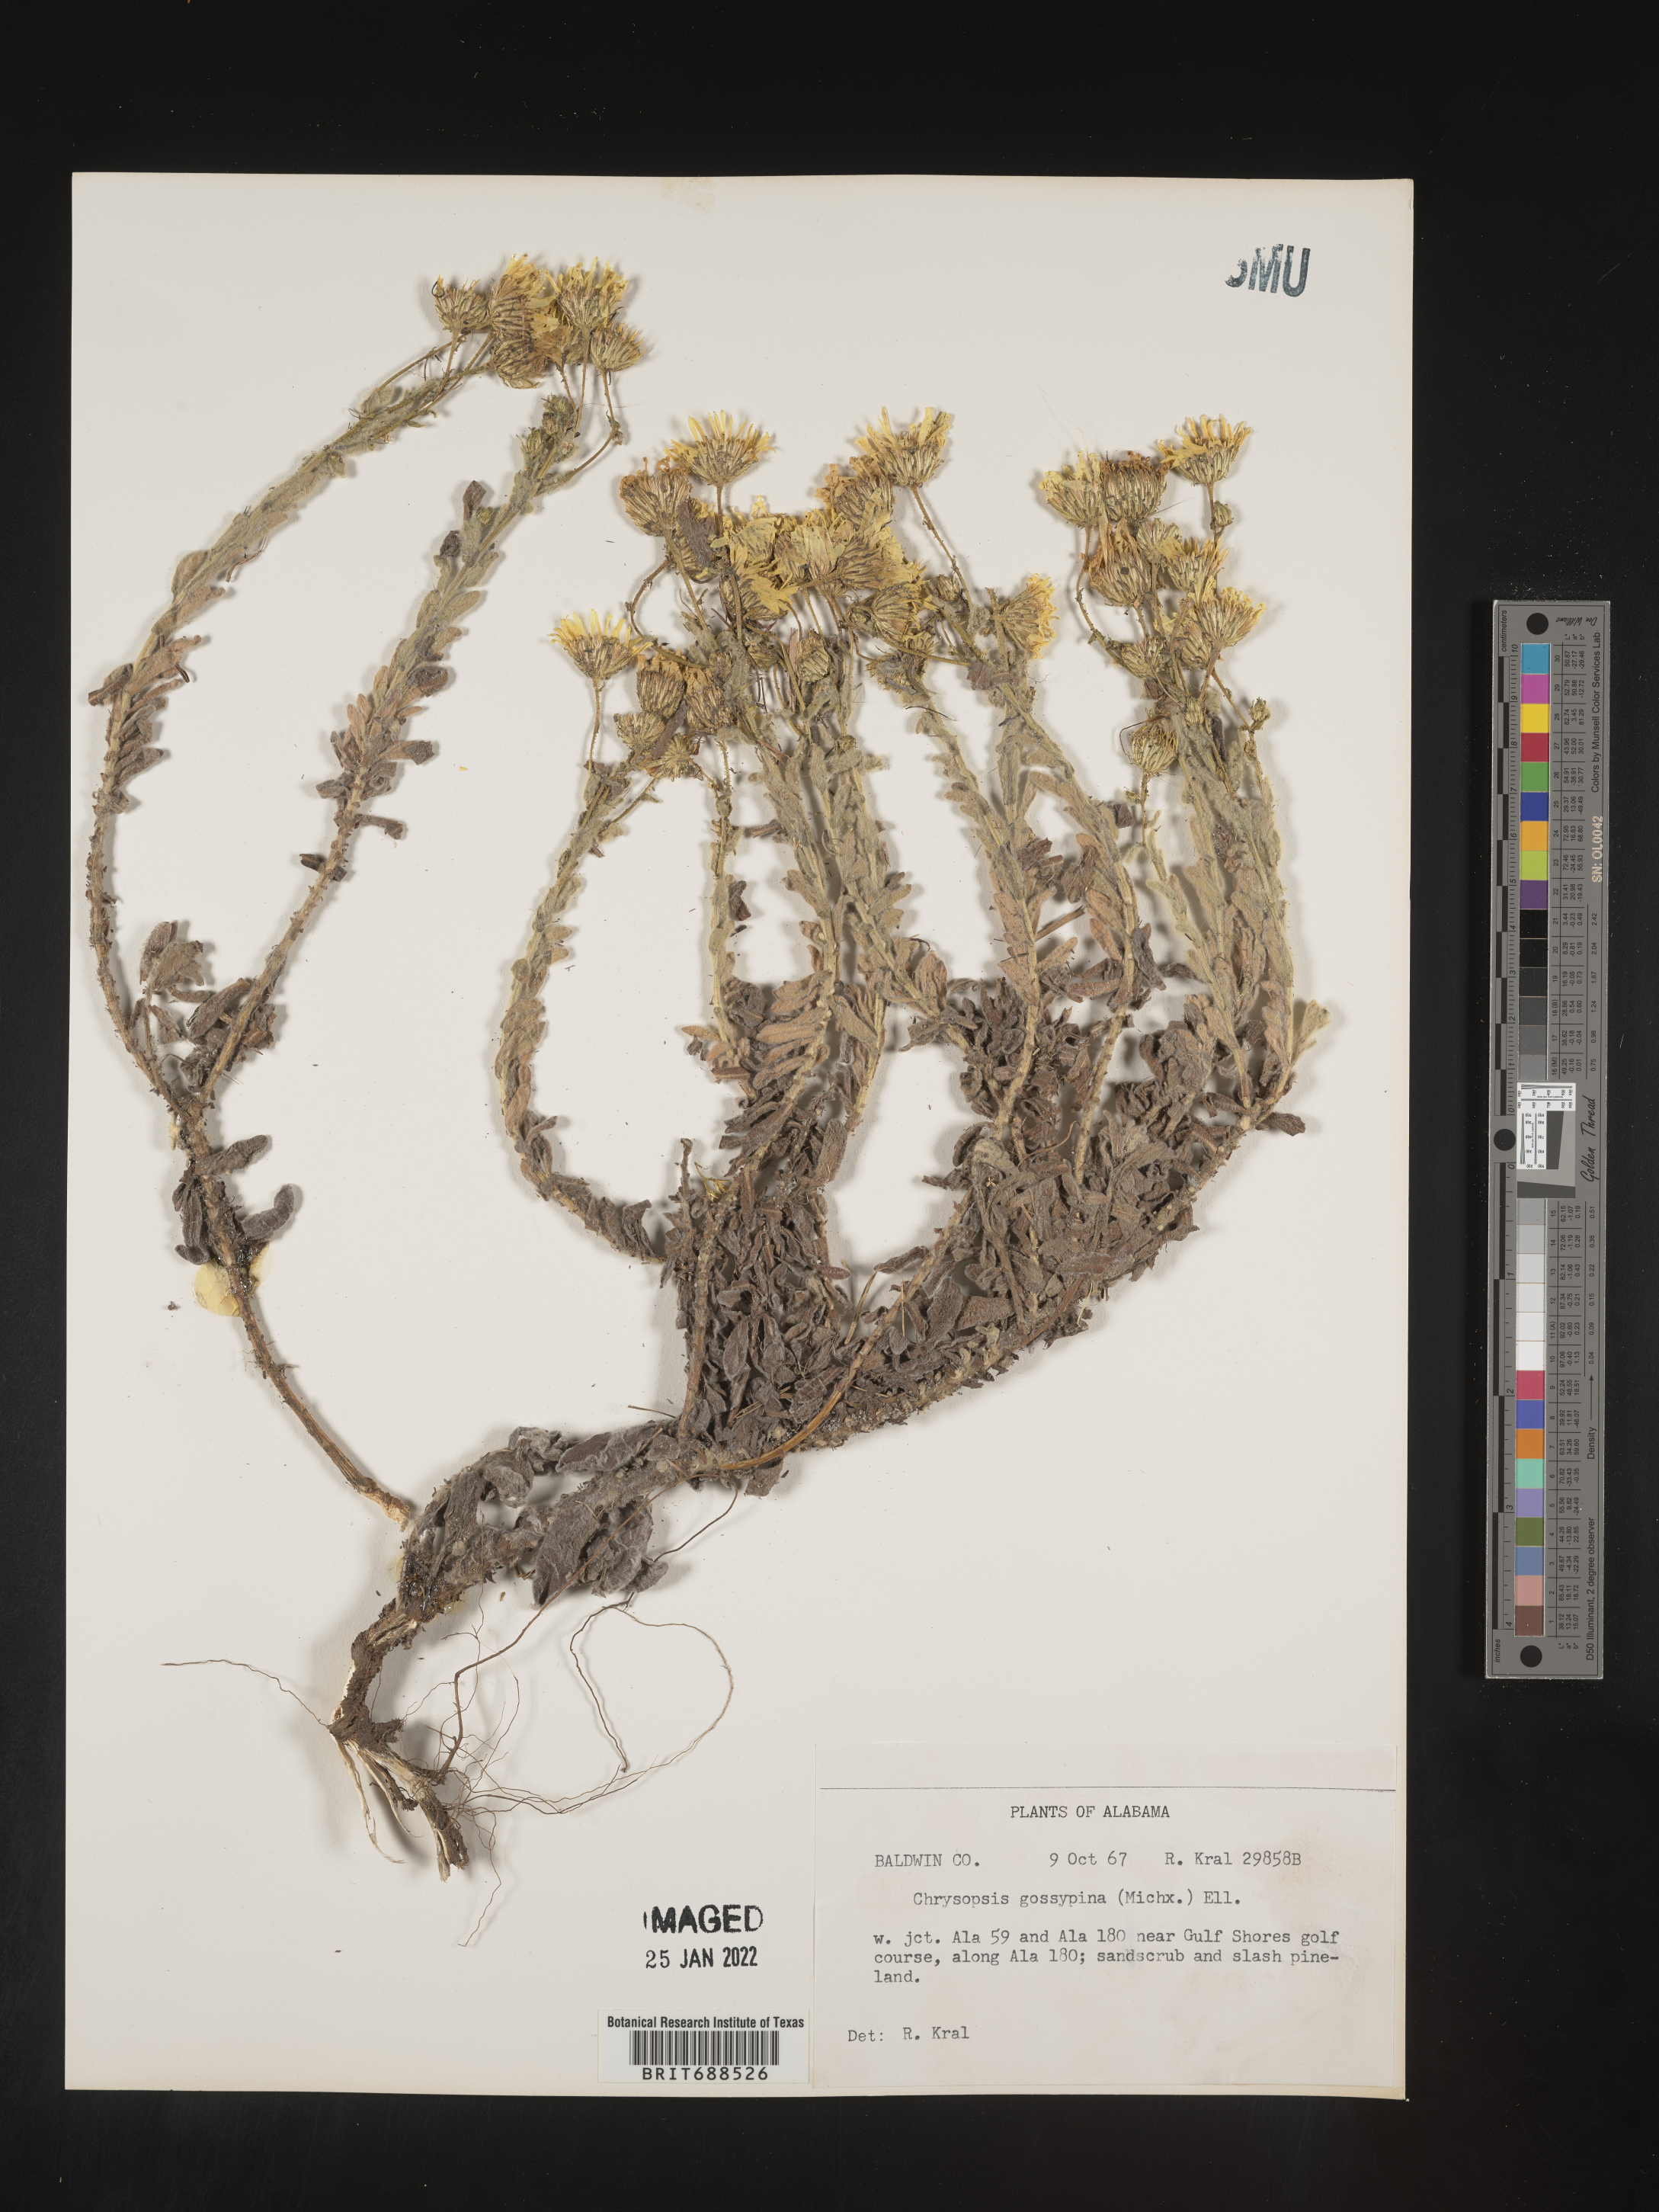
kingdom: Plantae
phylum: Tracheophyta
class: Magnoliopsida
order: Asterales
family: Asteraceae
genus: Chrysopsis
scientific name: Chrysopsis gossypina
